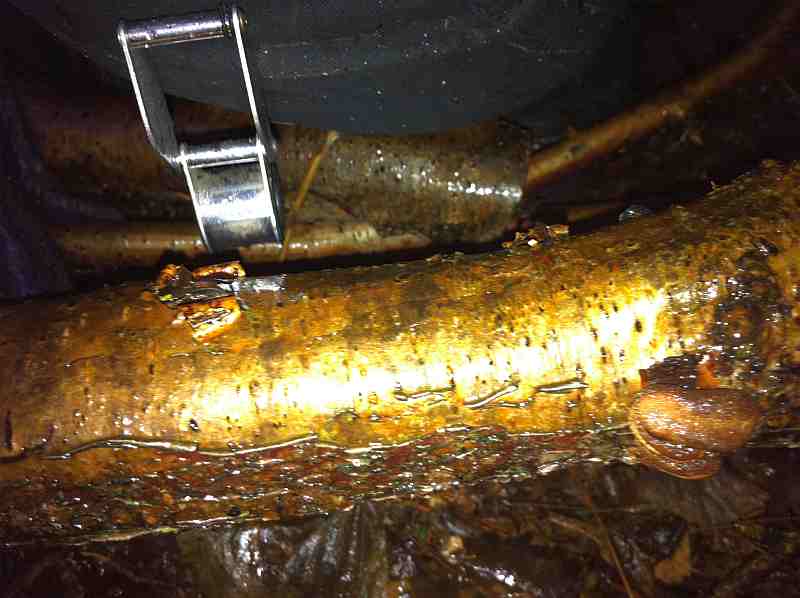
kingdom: Fungi
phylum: Ascomycota
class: Leotiomycetes
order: Helotiales
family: Cenangiaceae
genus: Encoelia
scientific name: Encoelia furfuracea
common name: hassel-læderskive
